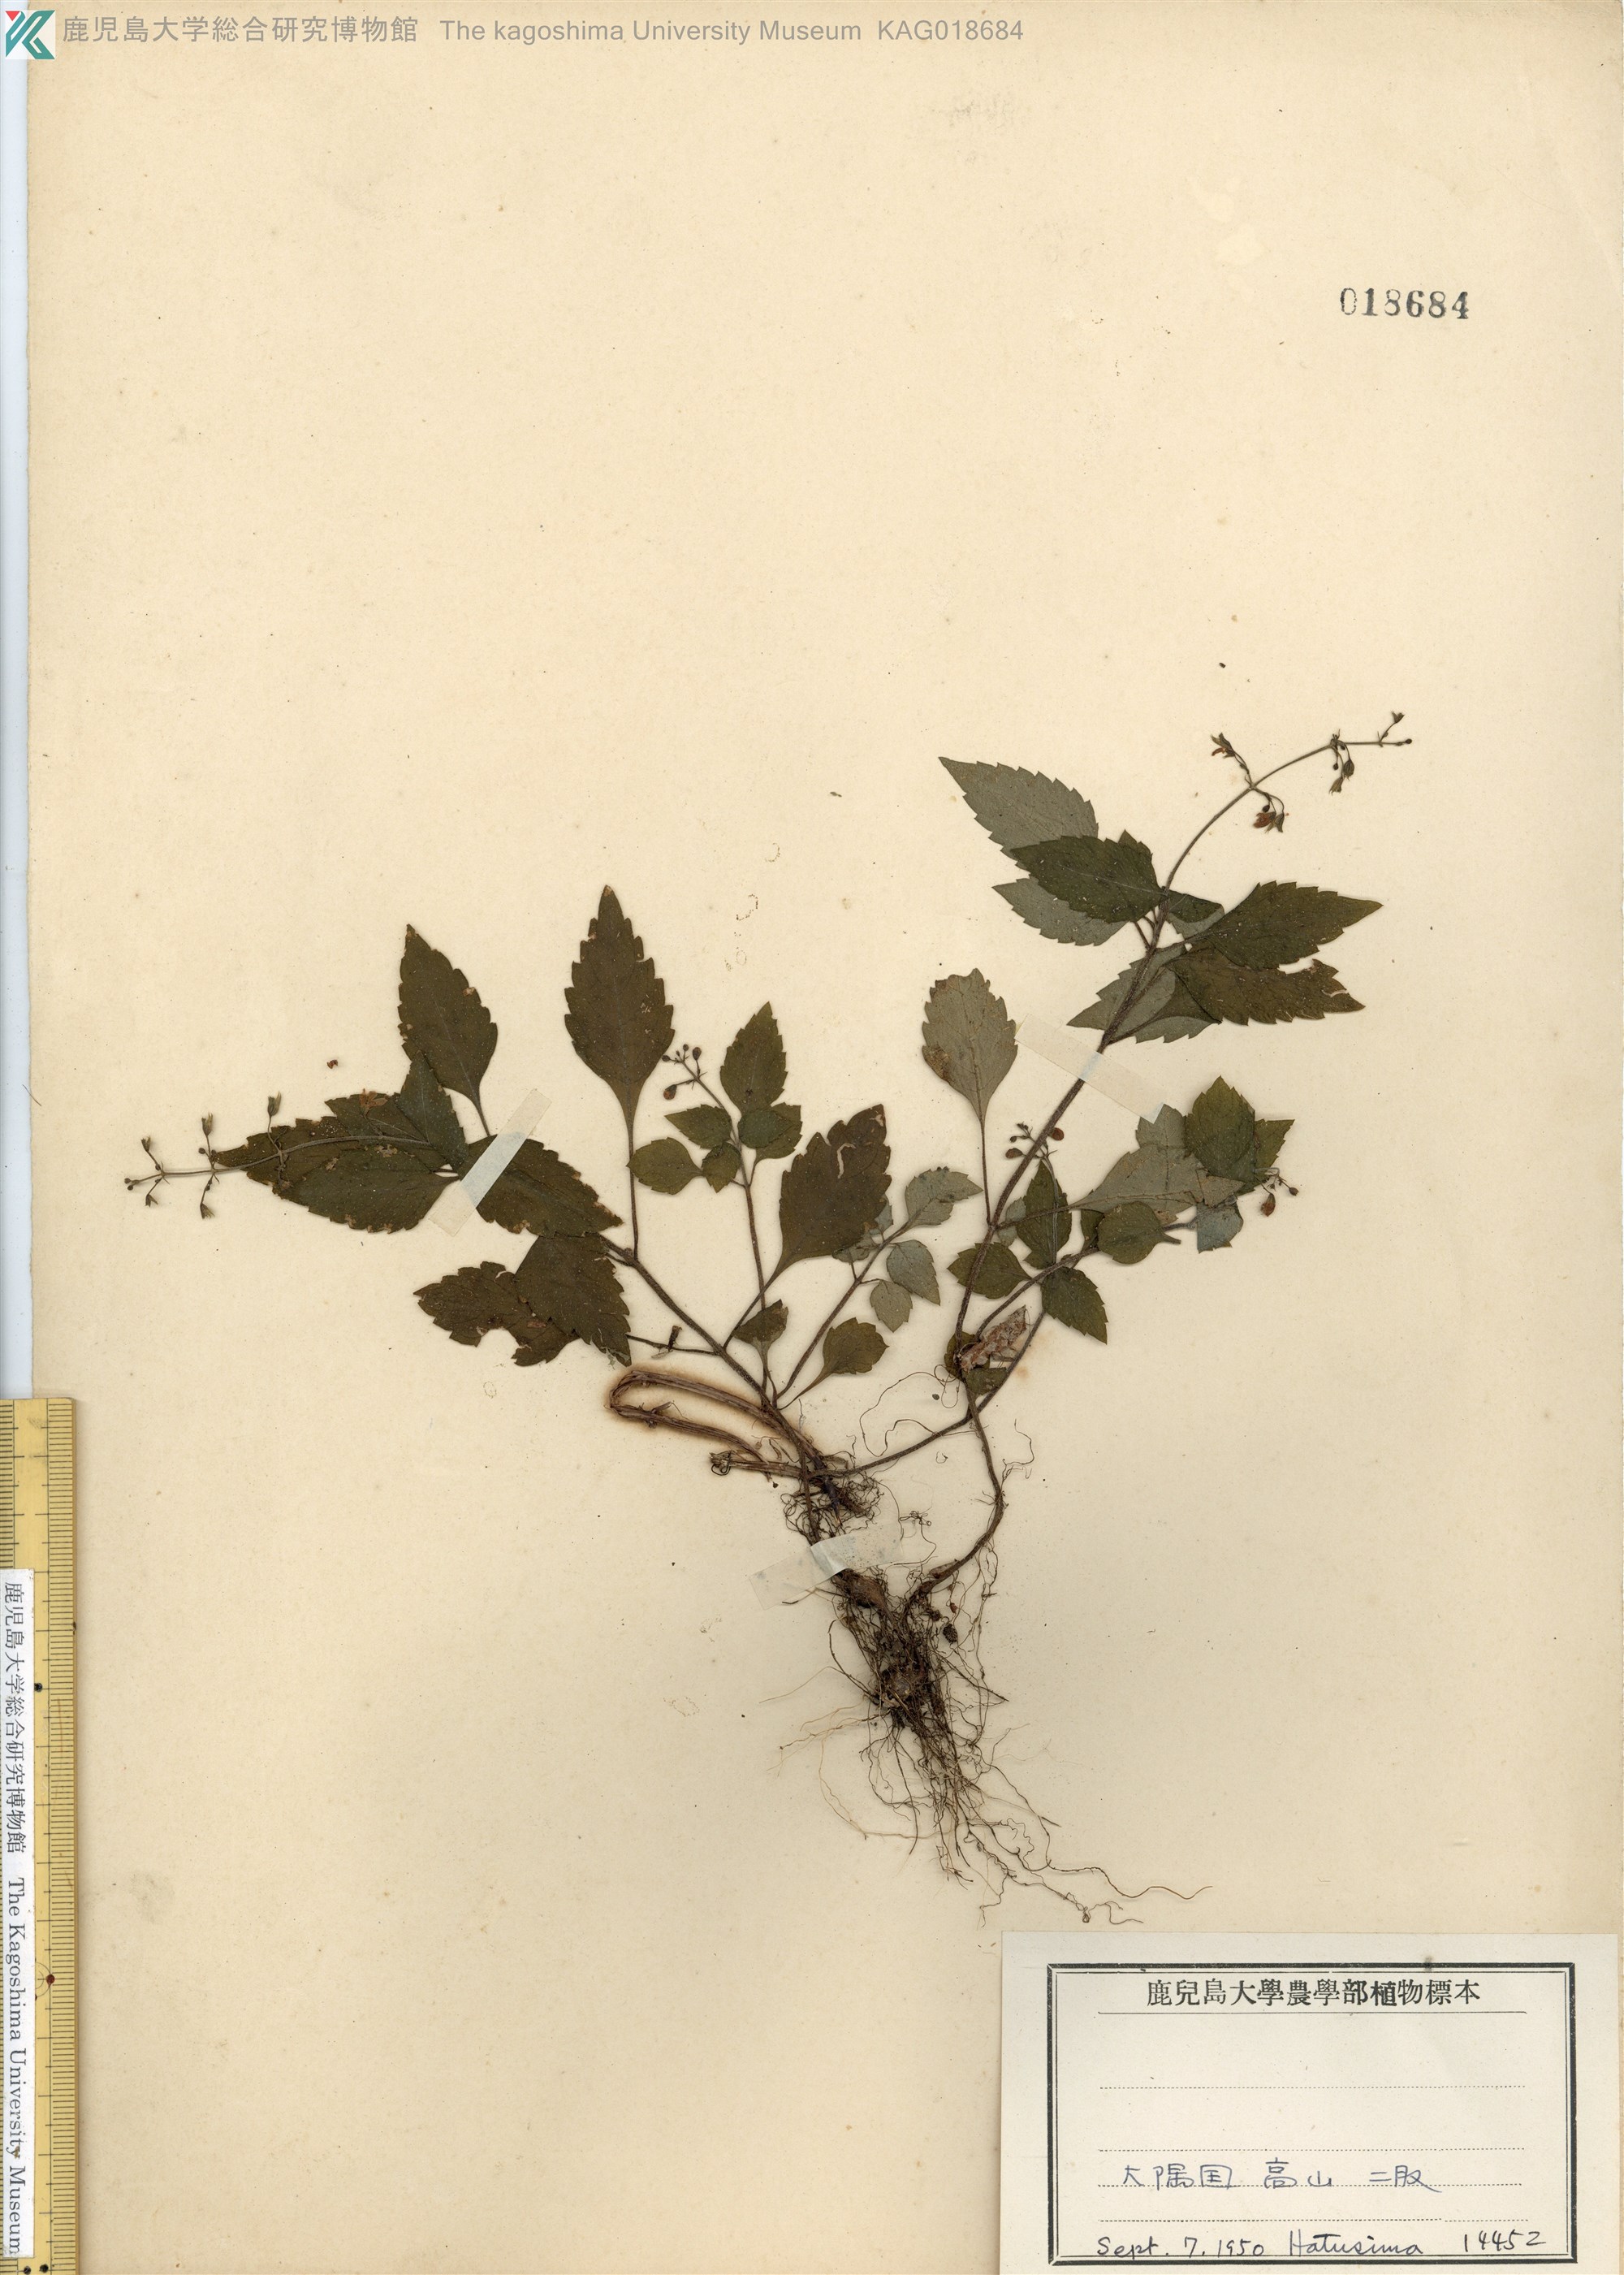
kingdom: Plantae
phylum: Tracheophyta
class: Magnoliopsida
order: Lamiales
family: Lamiaceae
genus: Perillula
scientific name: Perillula reptans
